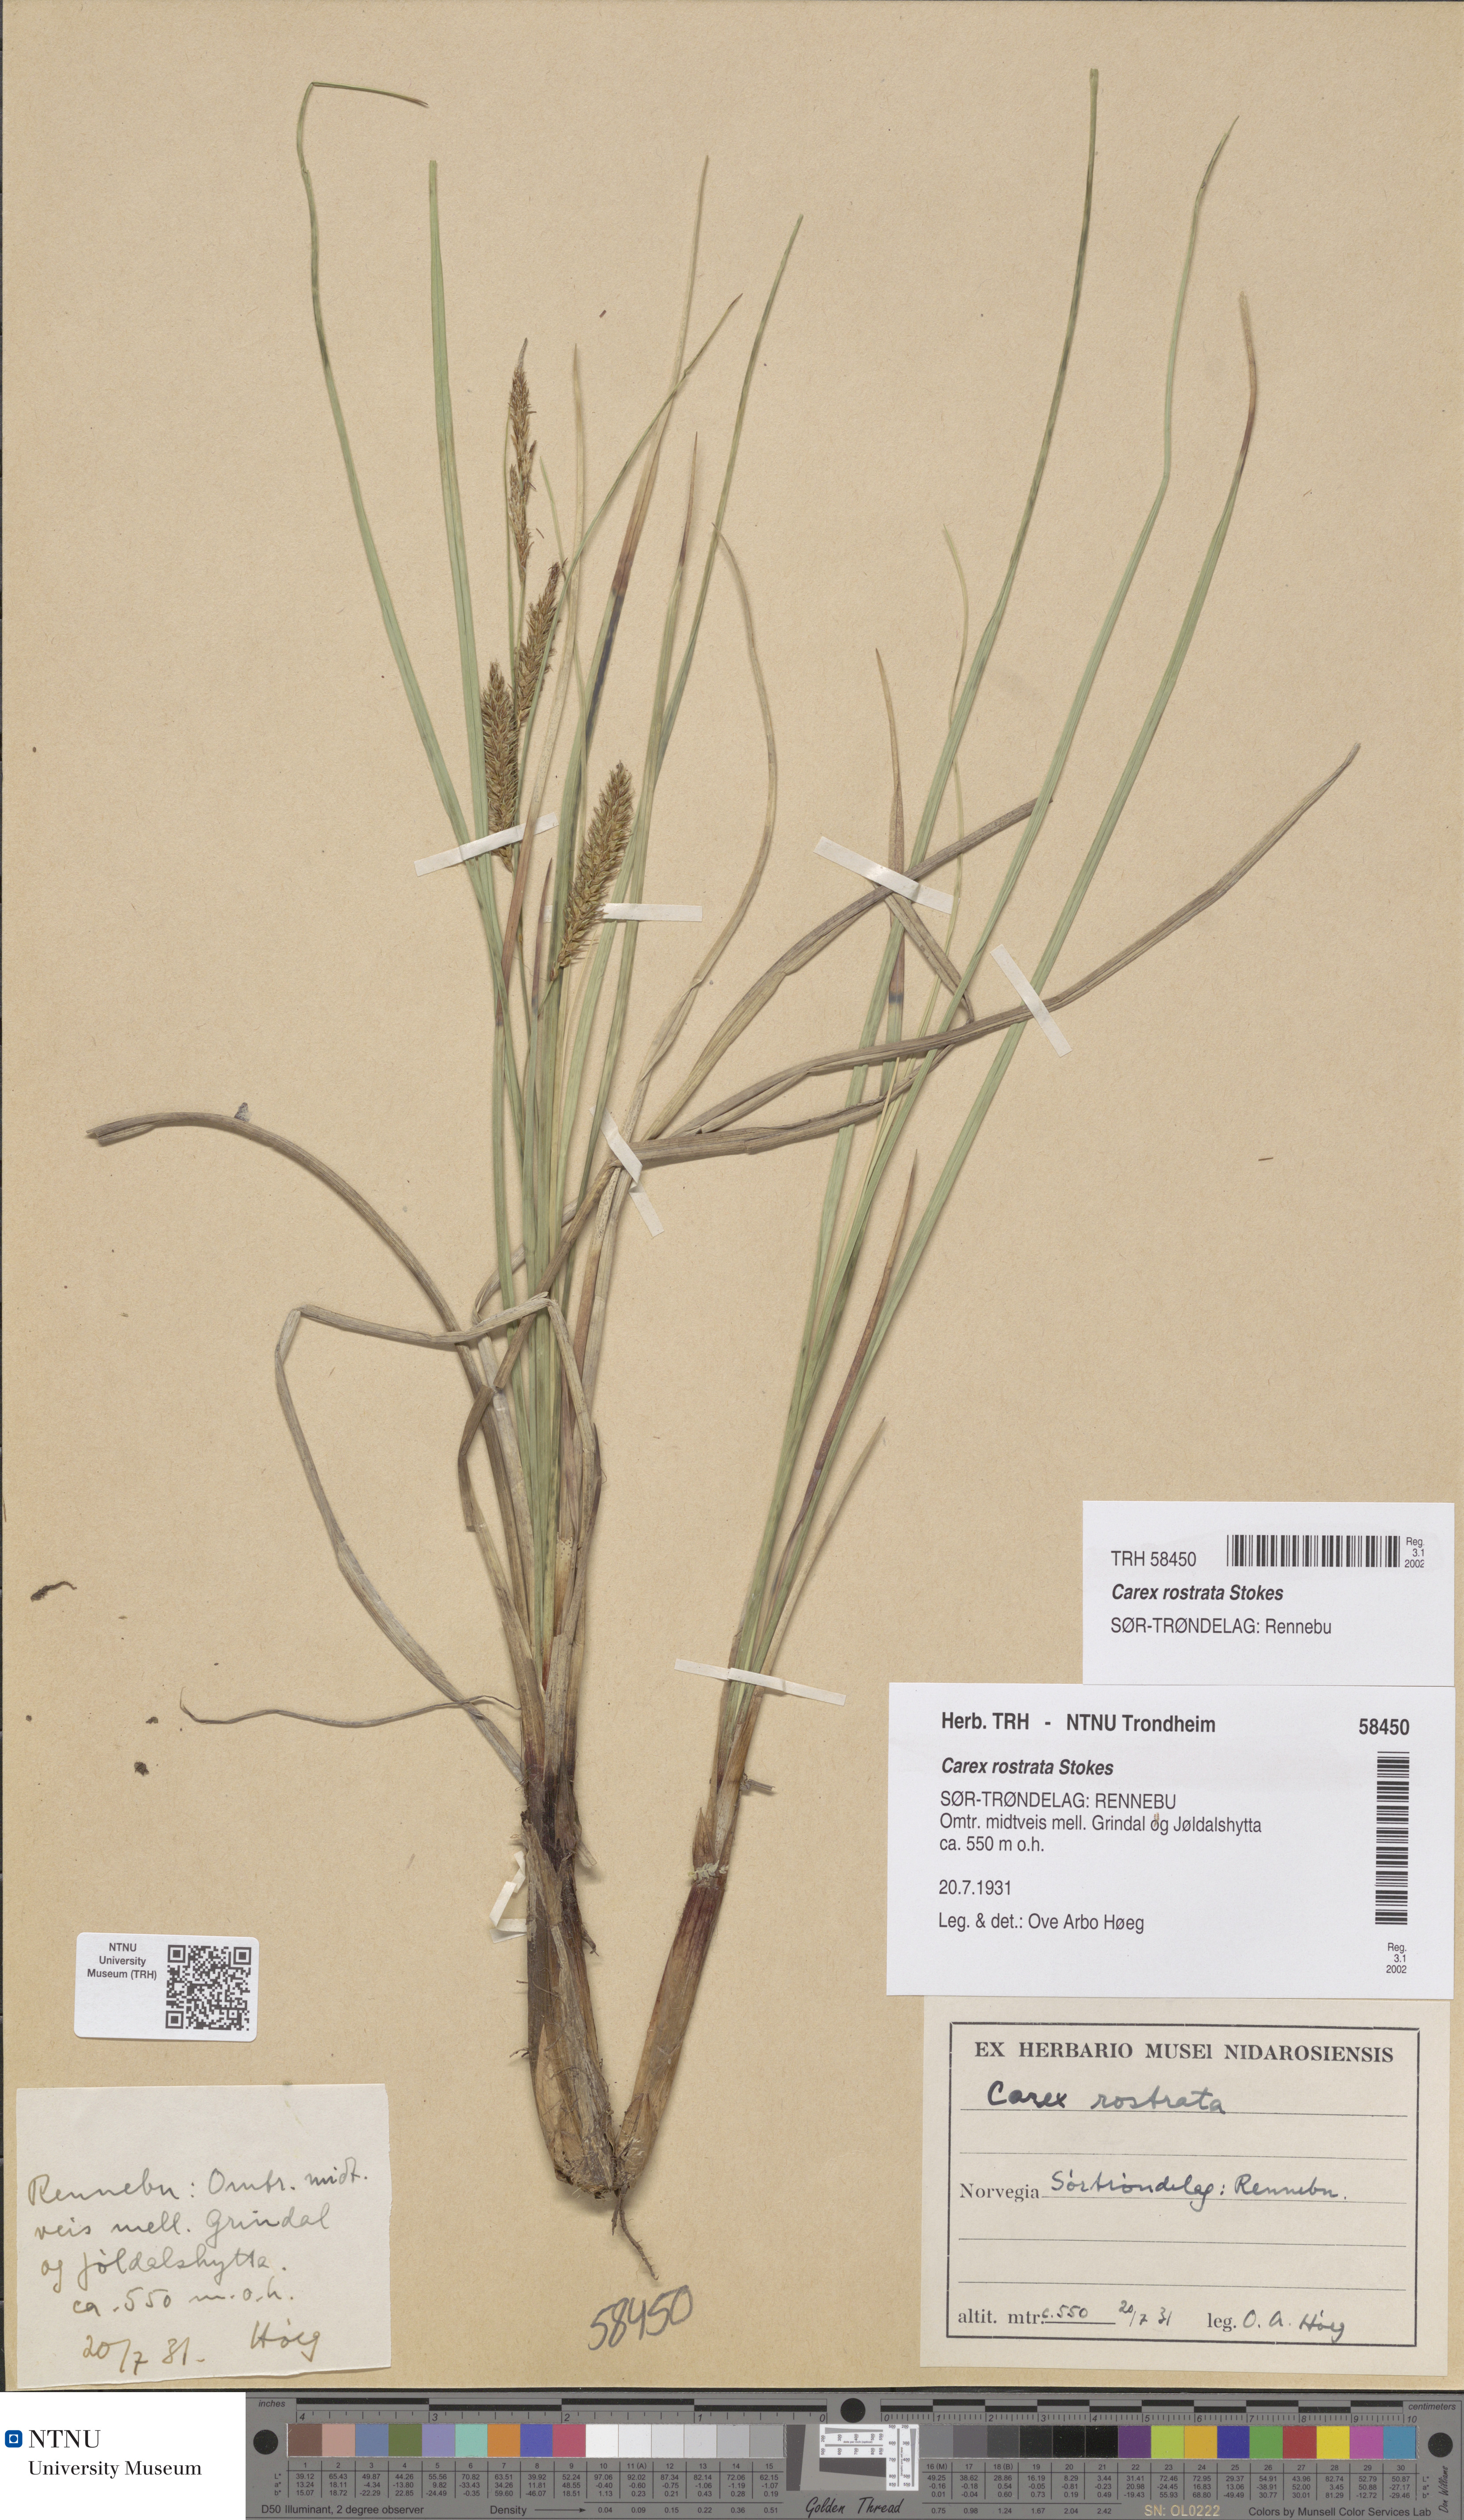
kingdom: Plantae
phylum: Tracheophyta
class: Liliopsida
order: Poales
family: Cyperaceae
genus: Carex
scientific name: Carex rostrata
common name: Bottle sedge
